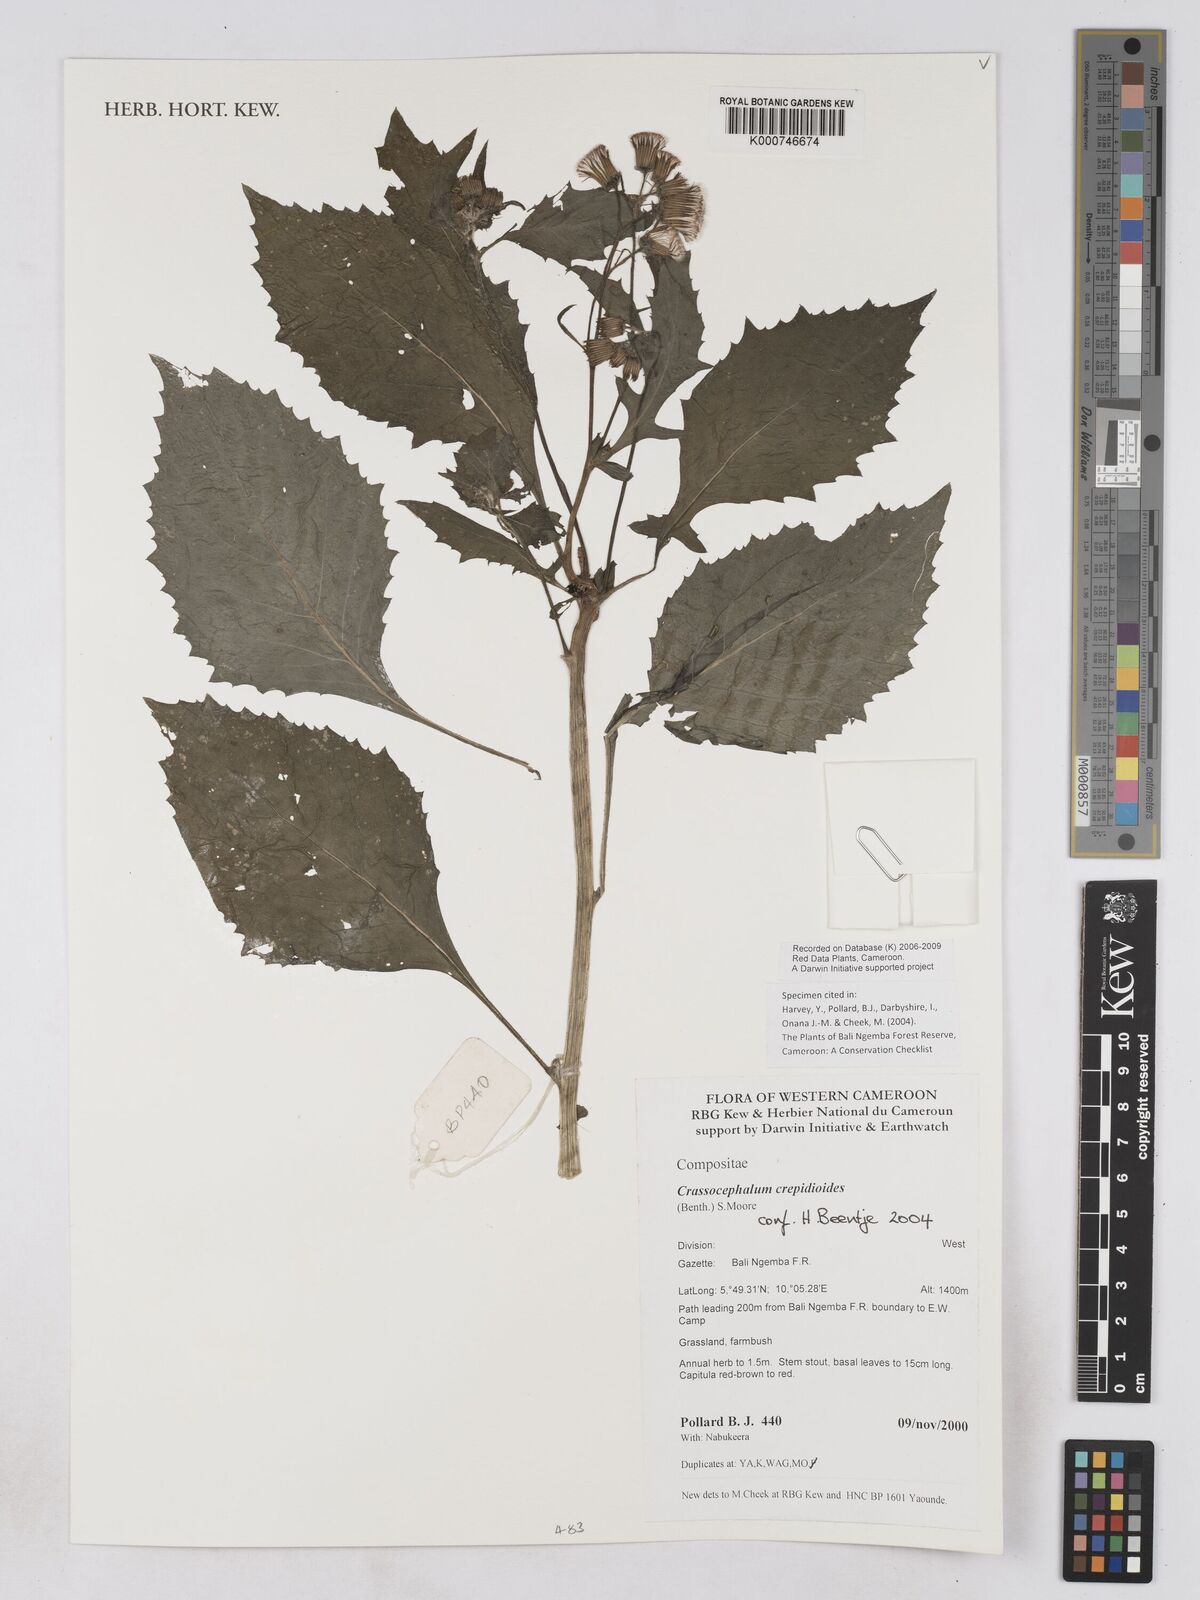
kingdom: Plantae
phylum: Tracheophyta
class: Magnoliopsida
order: Asterales
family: Asteraceae
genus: Crassocephalum
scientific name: Crassocephalum crepidioides
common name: Redflower ragleaf
